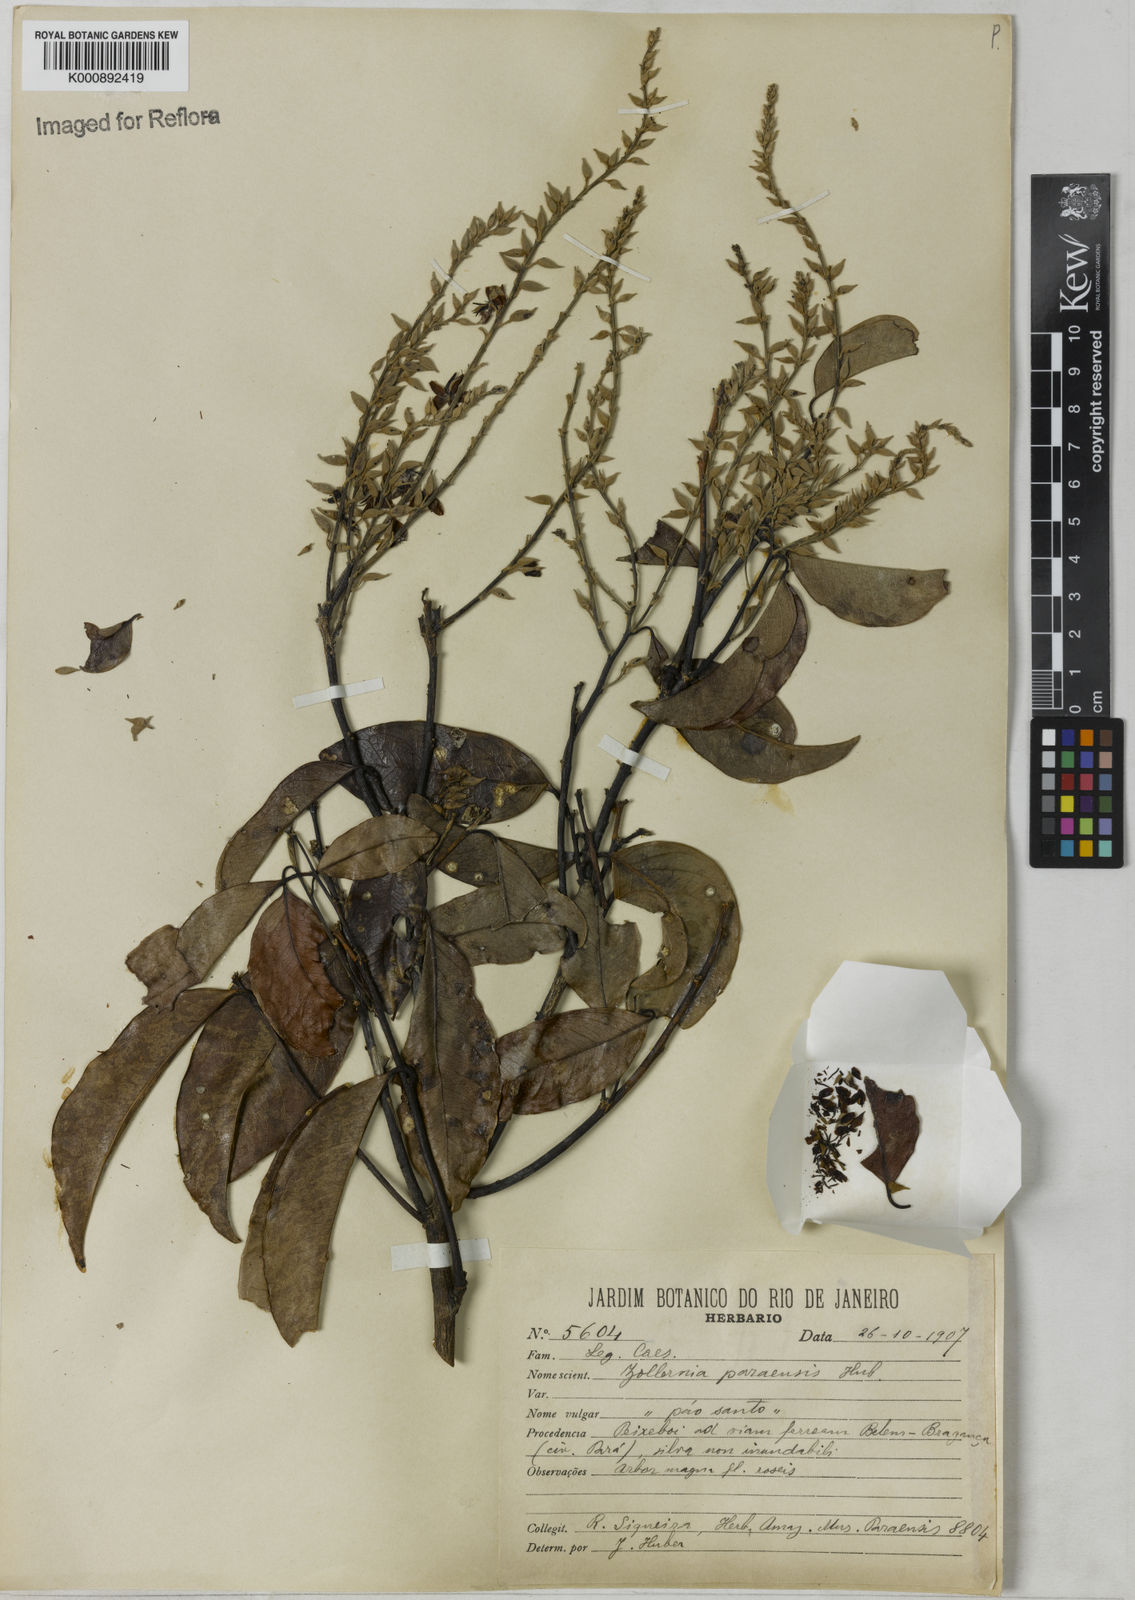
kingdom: Plantae
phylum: Tracheophyta
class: Magnoliopsida
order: Fabales
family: Fabaceae
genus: Zollernia
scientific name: Zollernia paraensis
